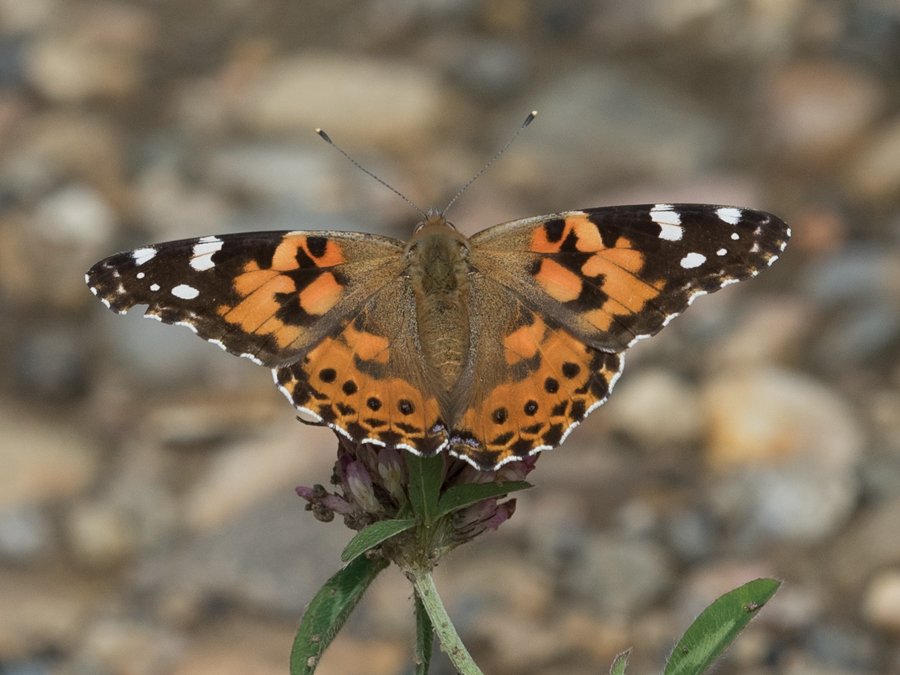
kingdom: Animalia
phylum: Arthropoda
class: Insecta
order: Lepidoptera
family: Nymphalidae
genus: Vanessa
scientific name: Vanessa cardui
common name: Painted Lady
